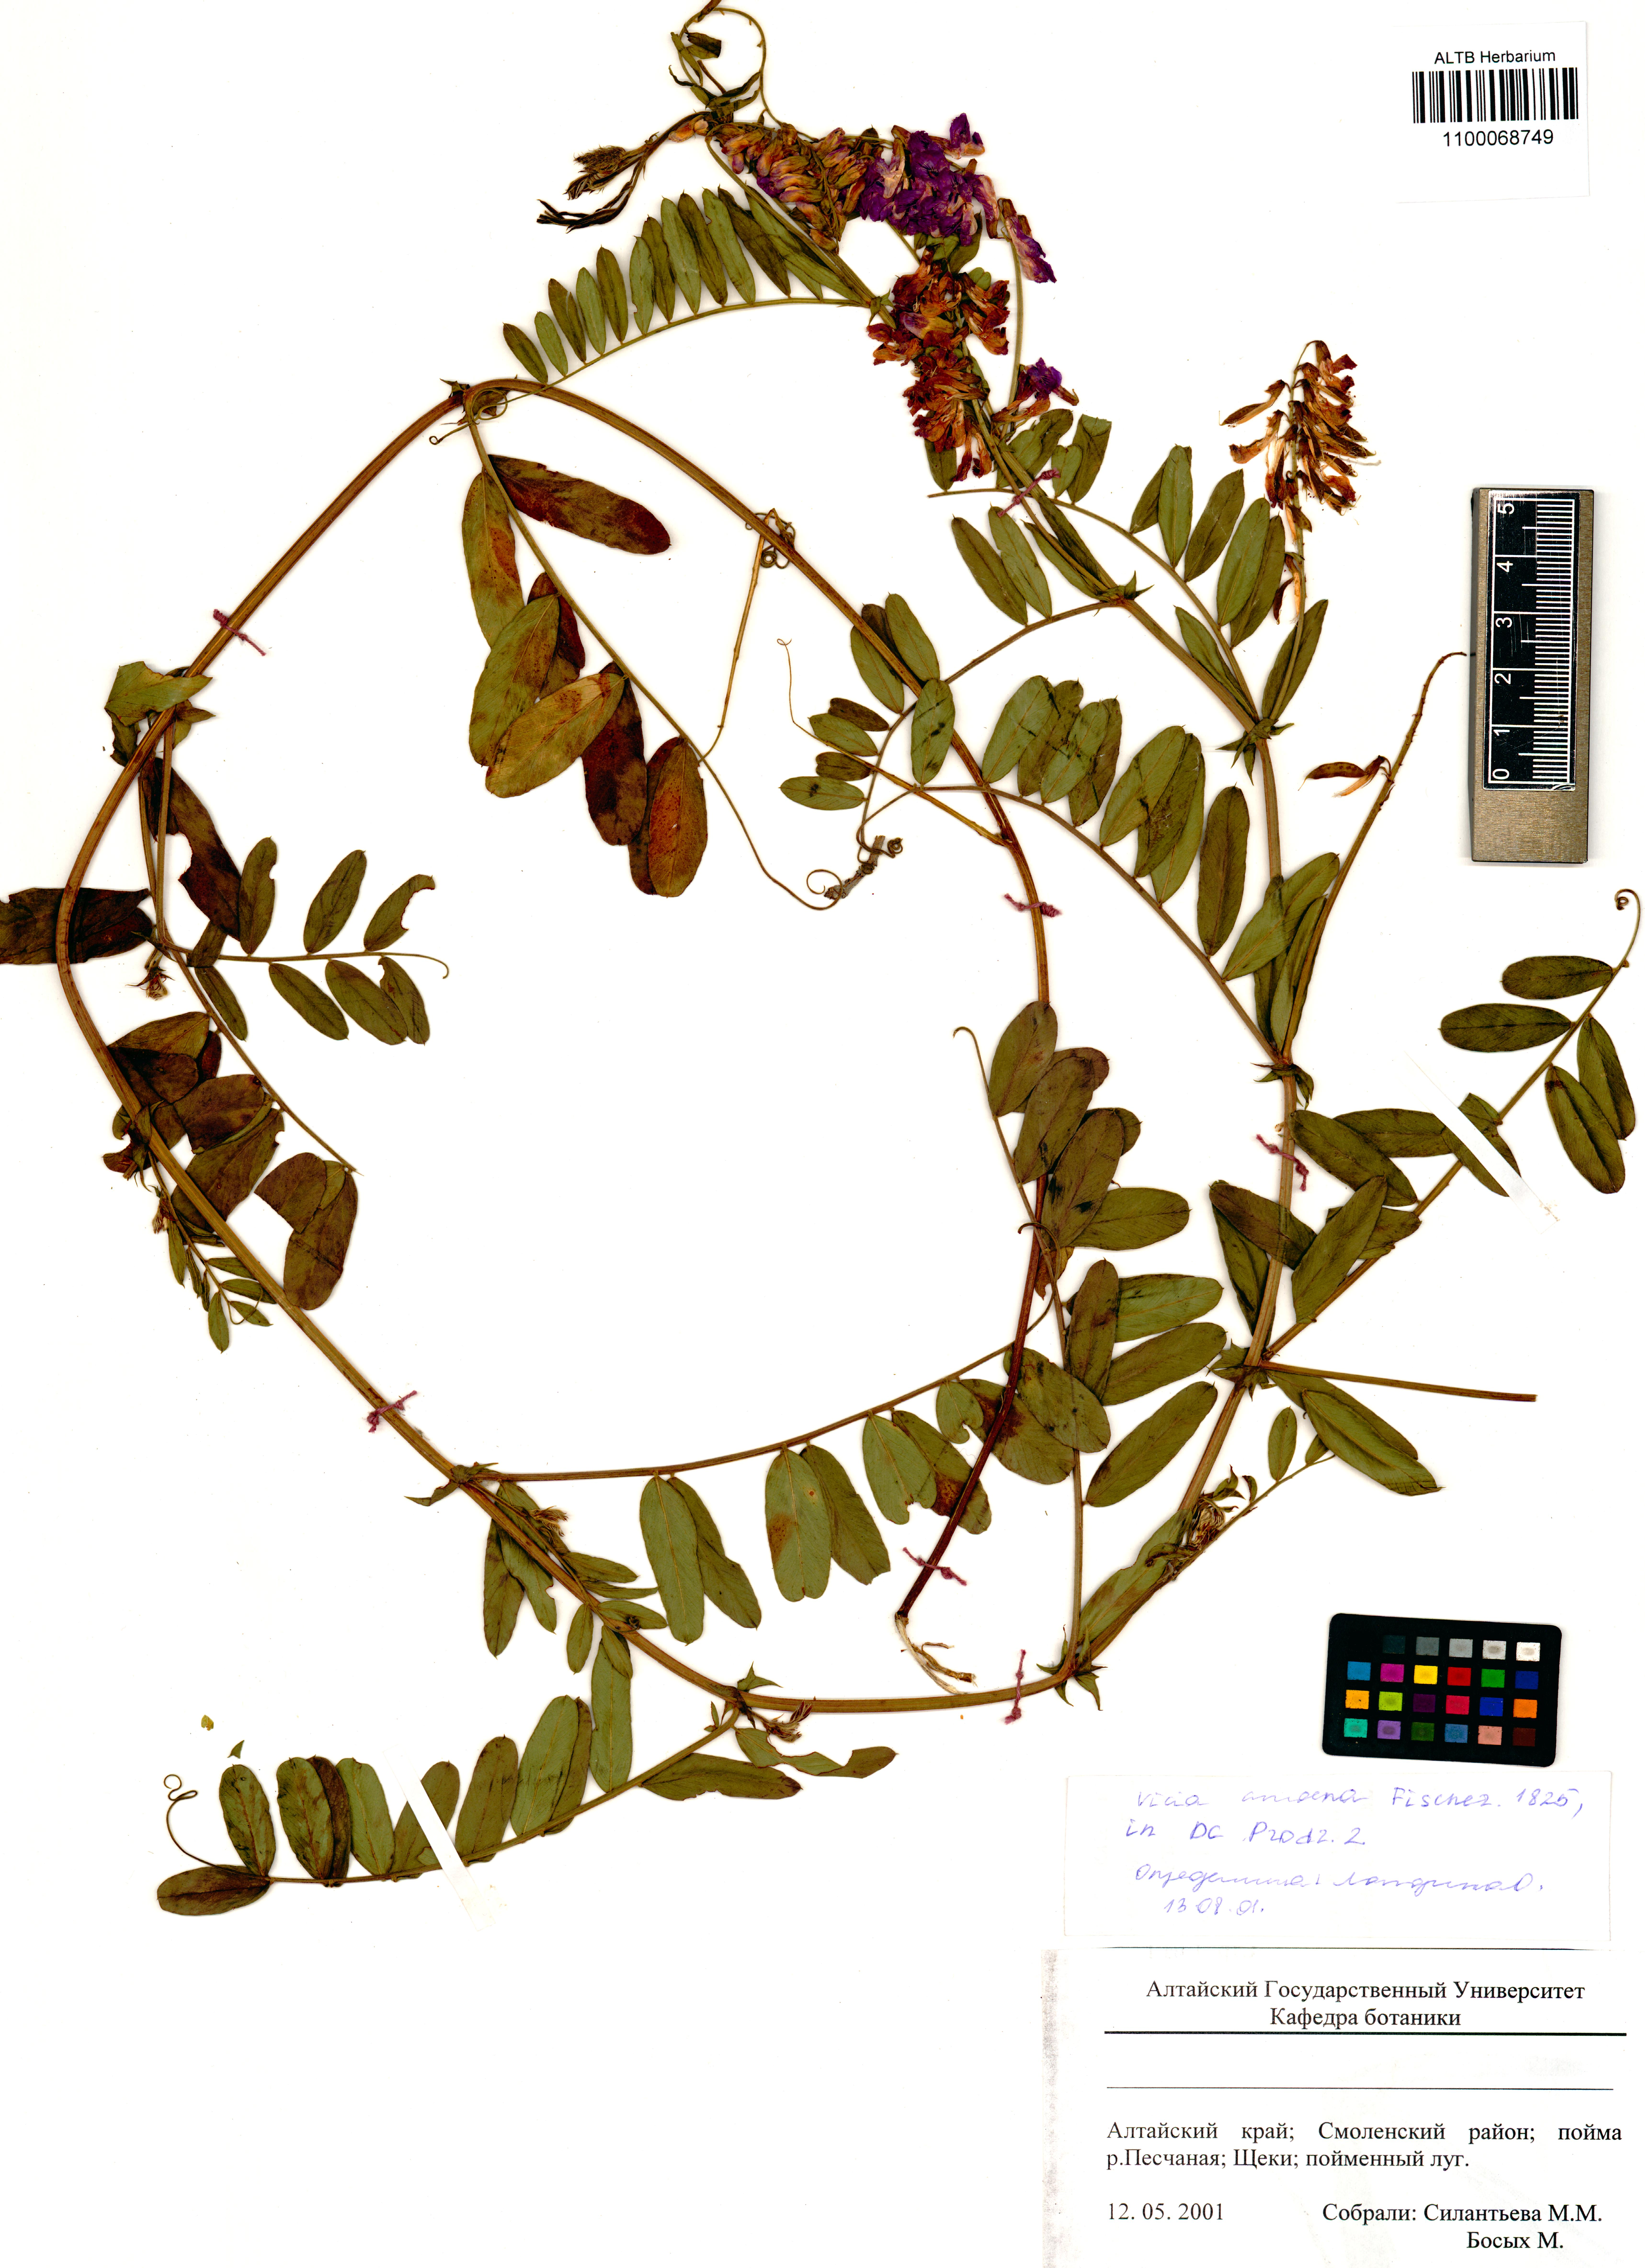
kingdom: Plantae
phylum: Tracheophyta
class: Magnoliopsida
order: Fabales
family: Fabaceae
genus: Vicia
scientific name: Vicia amoena
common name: Cheder ebs
